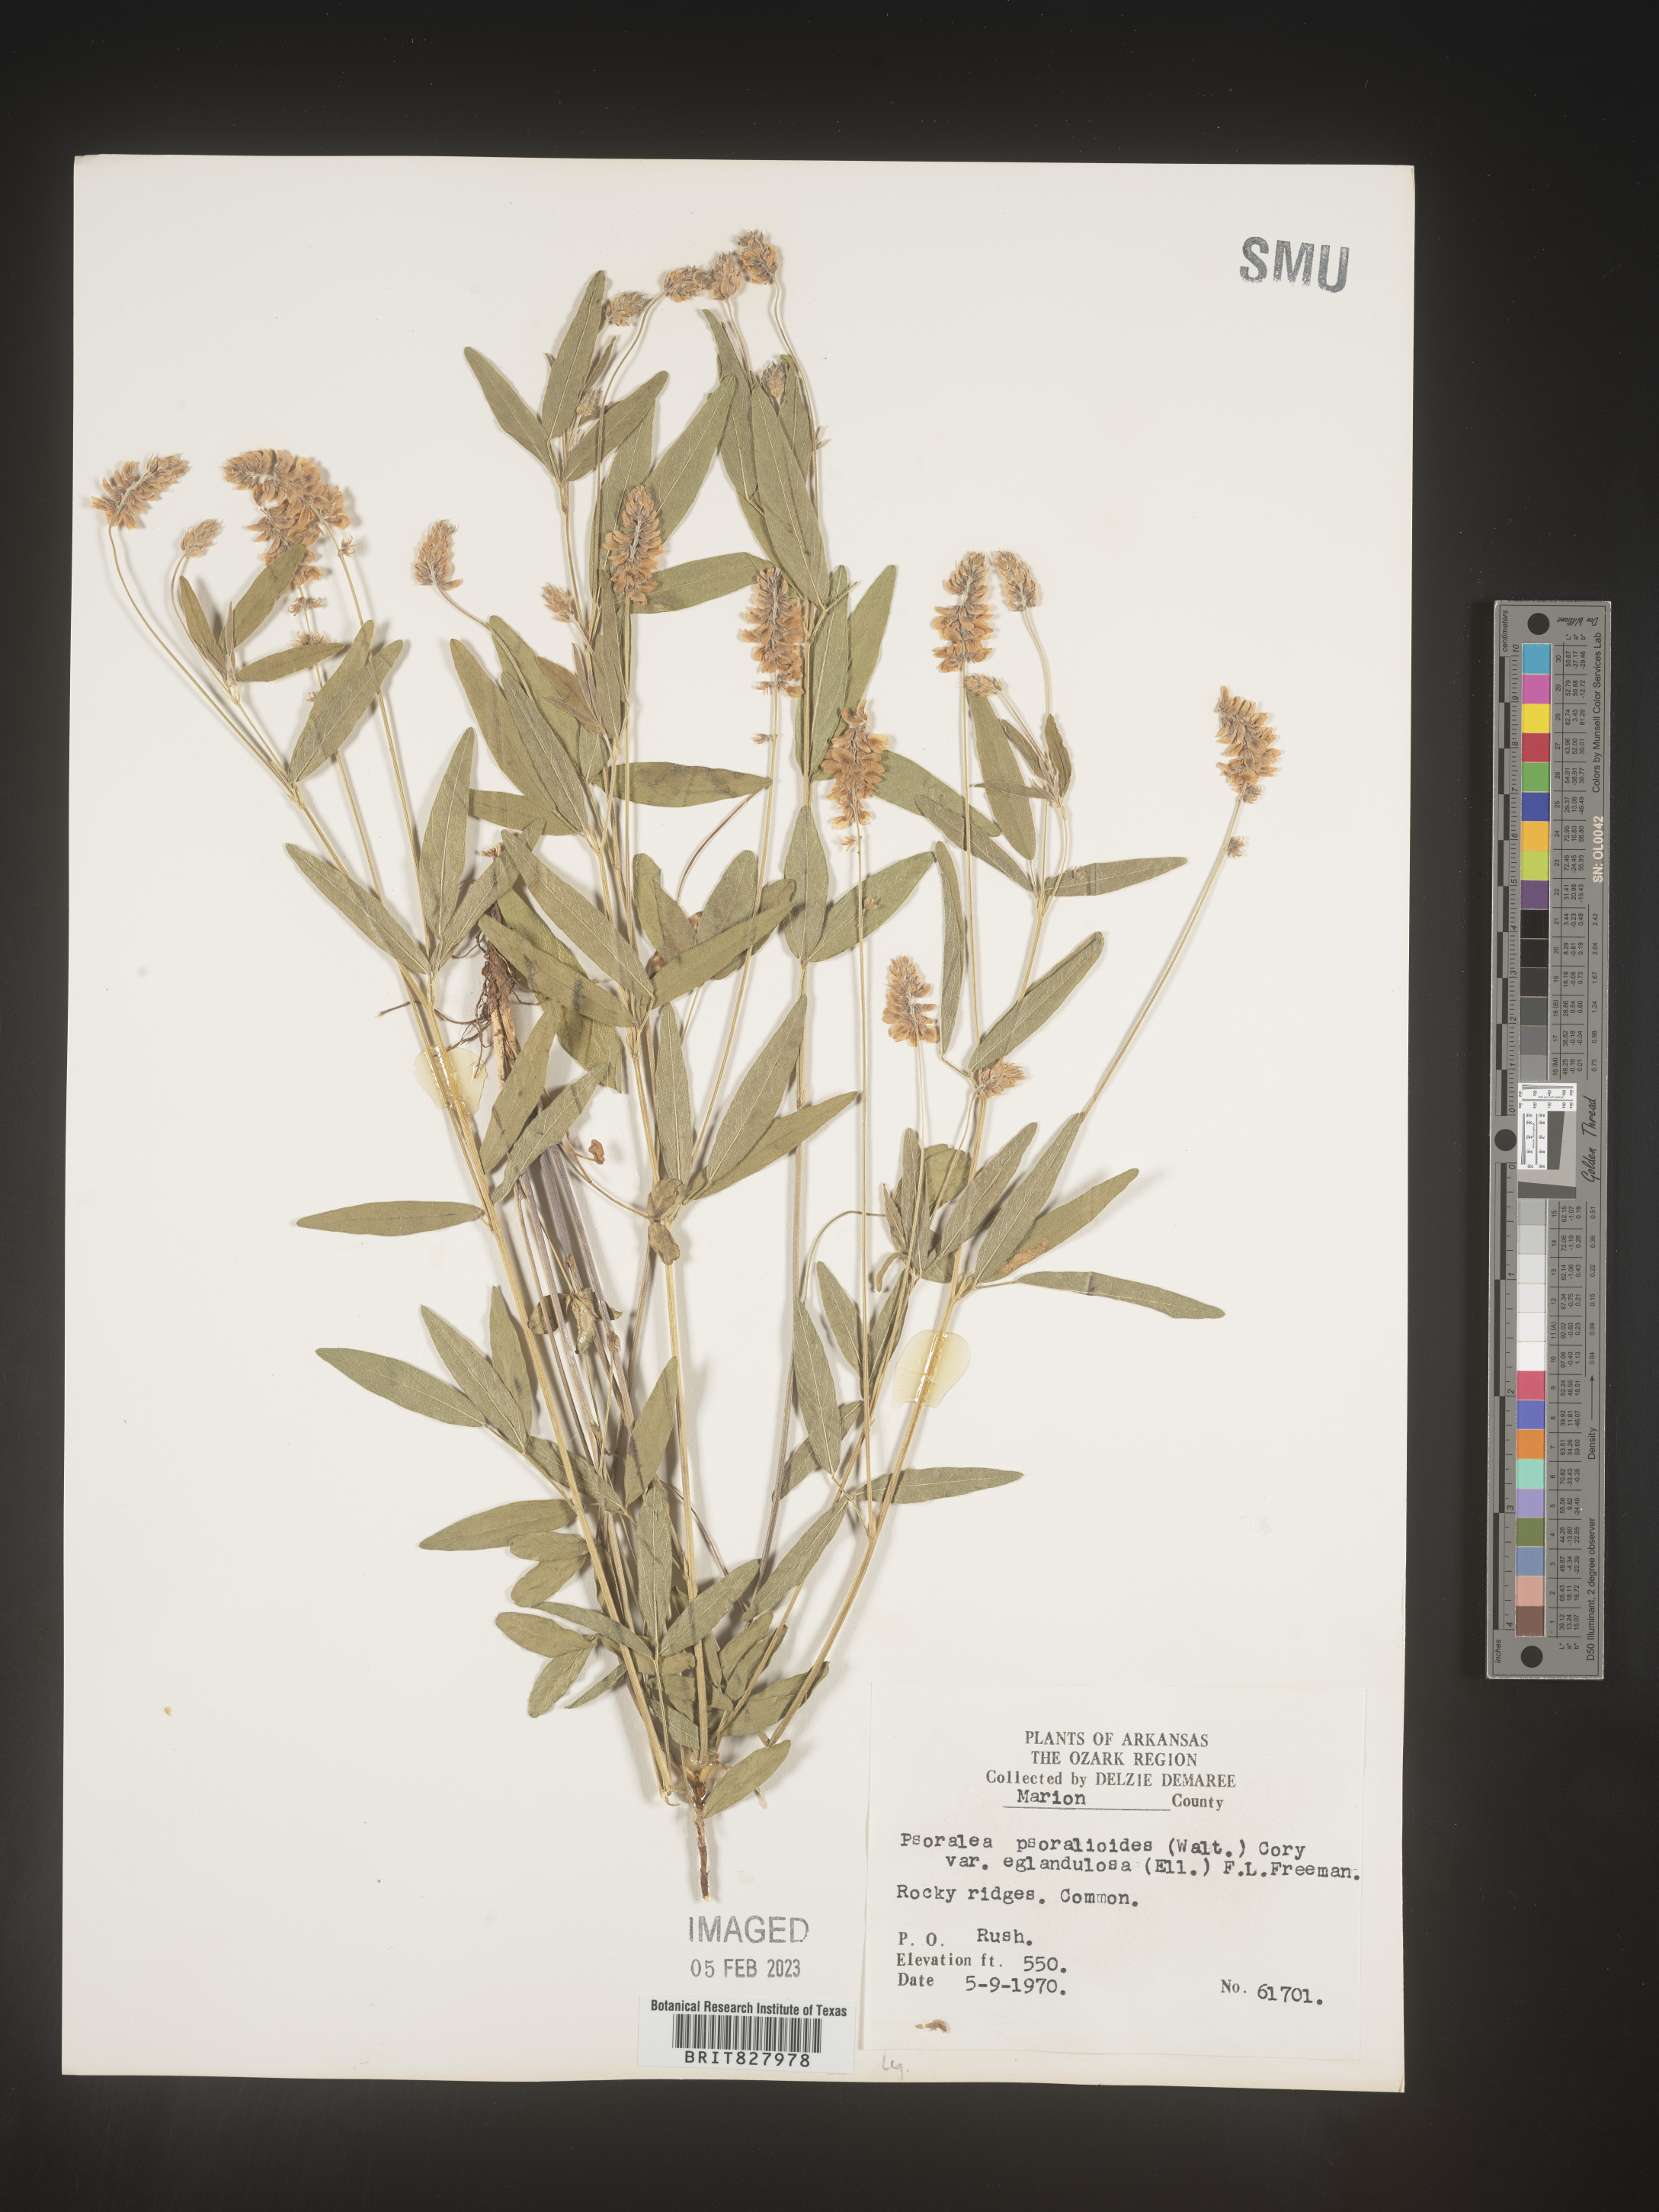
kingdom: Plantae
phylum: Tracheophyta
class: Magnoliopsida
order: Fabales
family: Fabaceae
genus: Orbexilum
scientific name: Orbexilum pedunculatum
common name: Sampson's snakeroot
